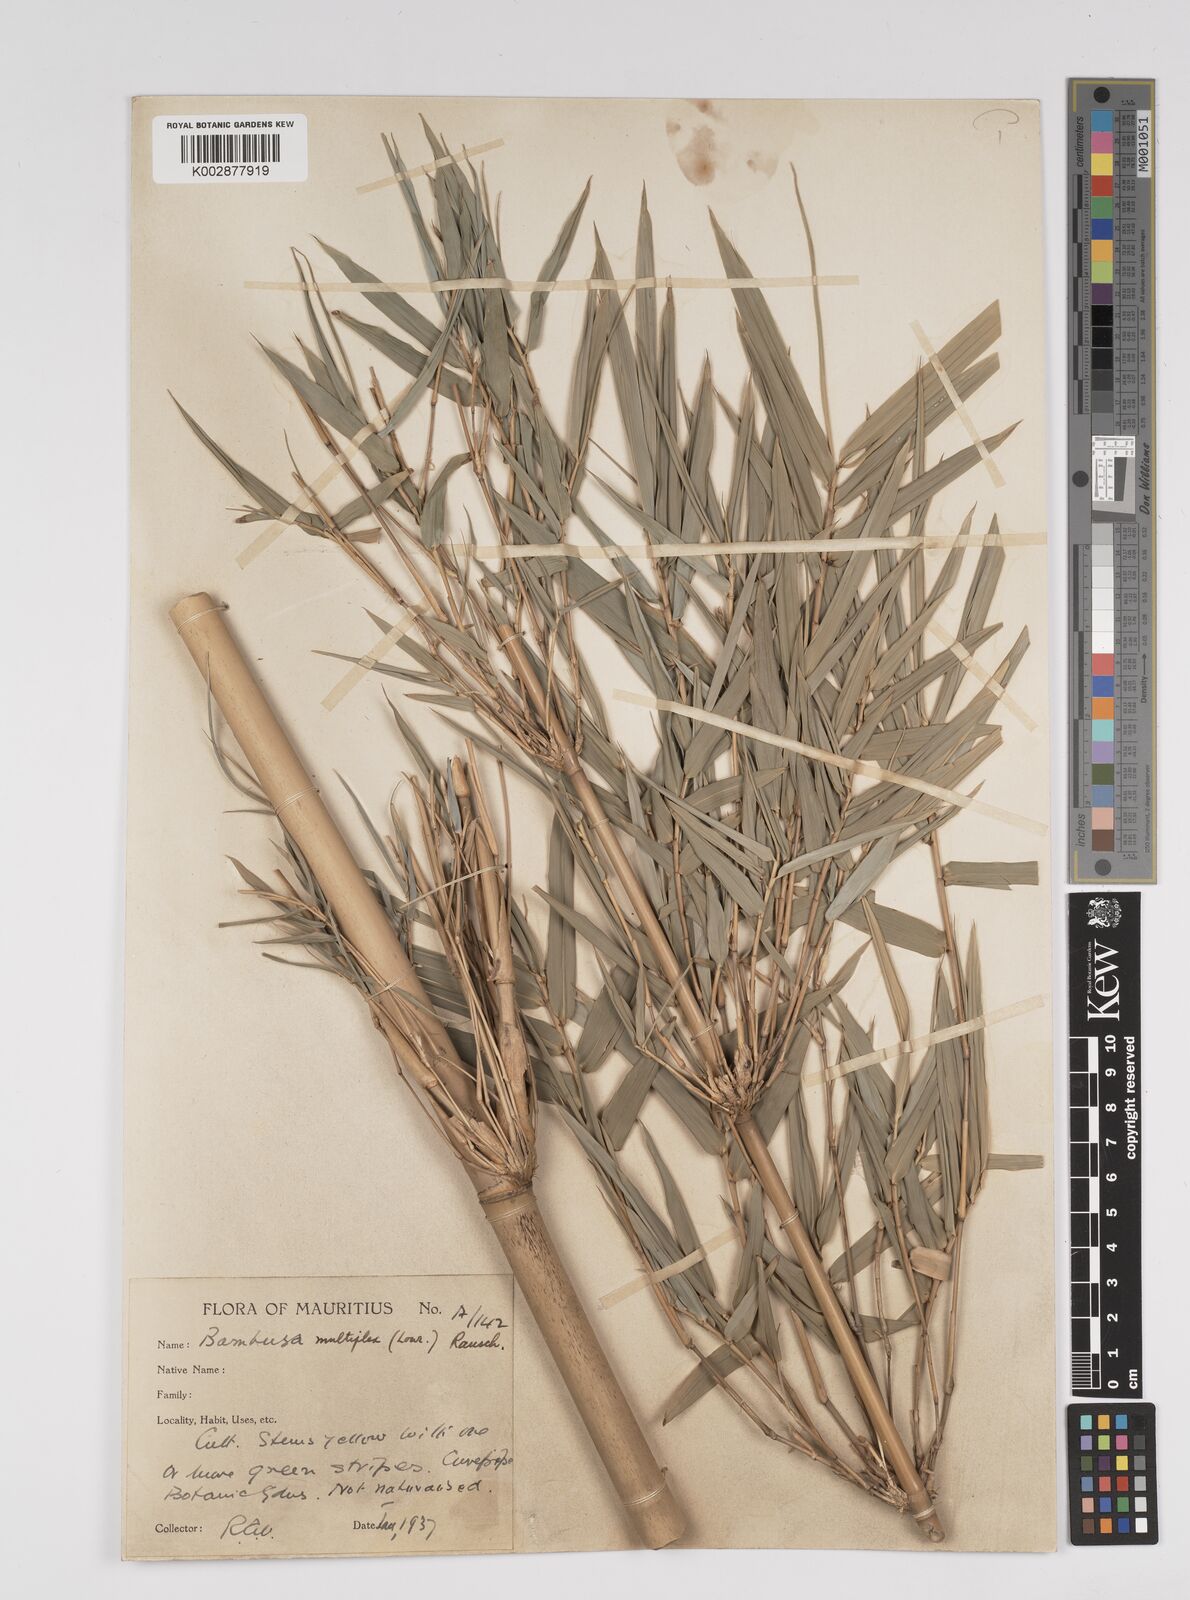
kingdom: Plantae
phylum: Tracheophyta
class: Liliopsida
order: Poales
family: Poaceae
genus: Bambusa
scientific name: Bambusa multiplex
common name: Hedge bamboo
